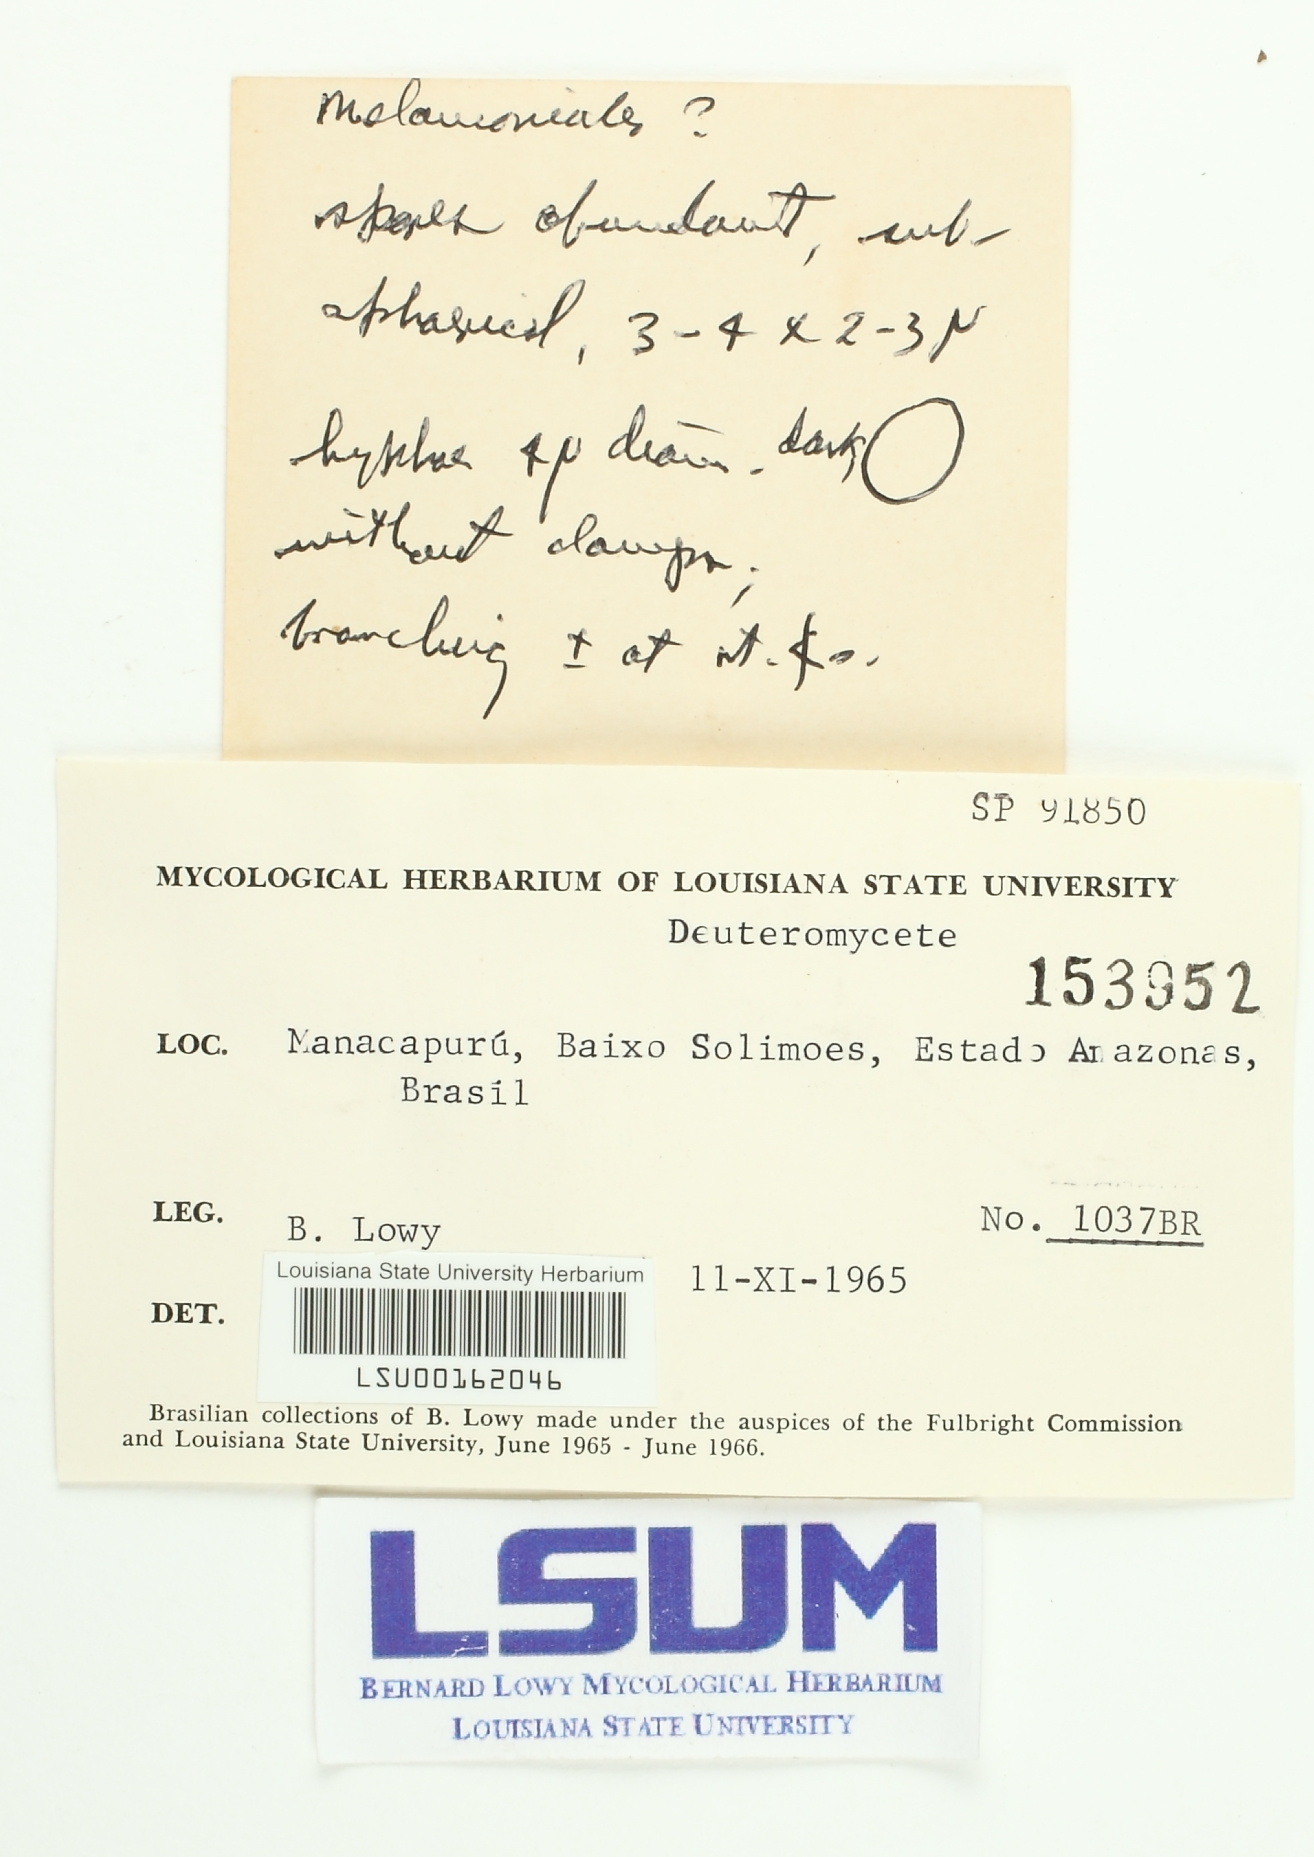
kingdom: Fungi
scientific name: Fungi
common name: Fungi
